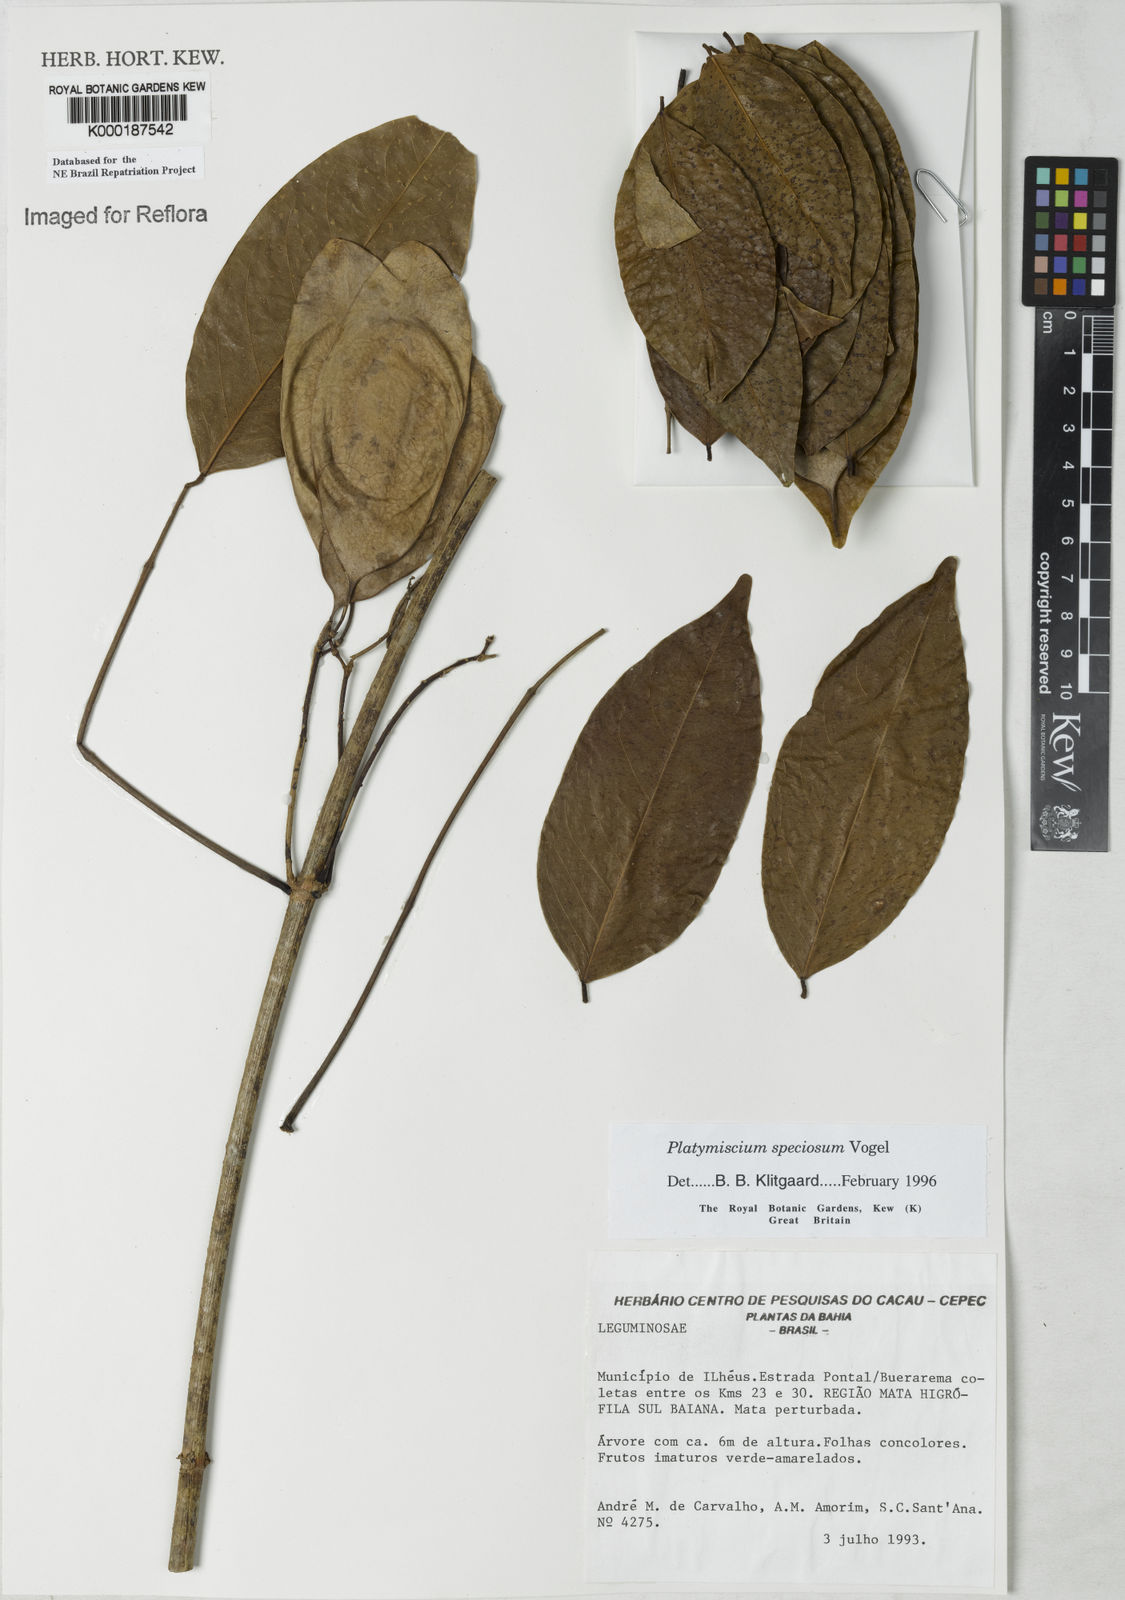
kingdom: Plantae
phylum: Tracheophyta
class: Magnoliopsida
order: Fabales
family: Fabaceae
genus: Platymiscium
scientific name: Platymiscium speciosum
